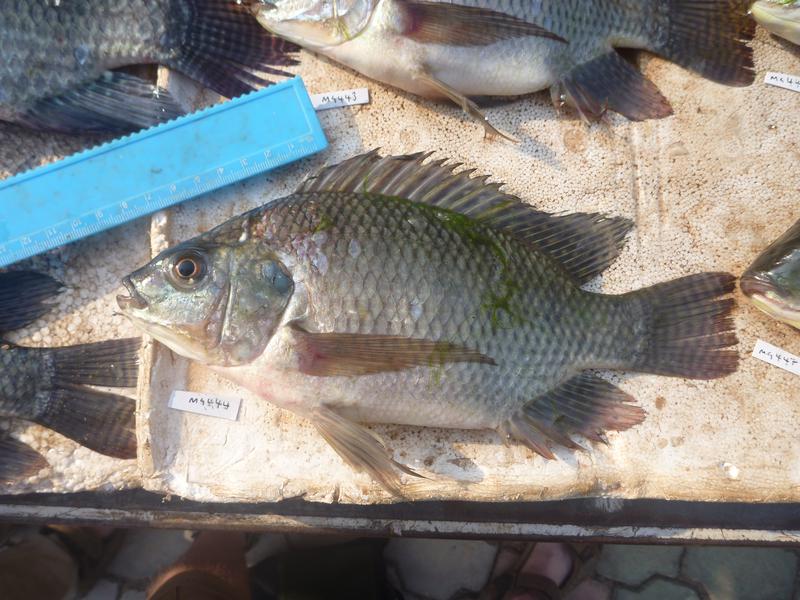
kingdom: Animalia
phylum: Chordata
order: Perciformes
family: Cichlidae
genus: Oreochromis
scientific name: Oreochromis niloticus
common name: Nile tilapia
